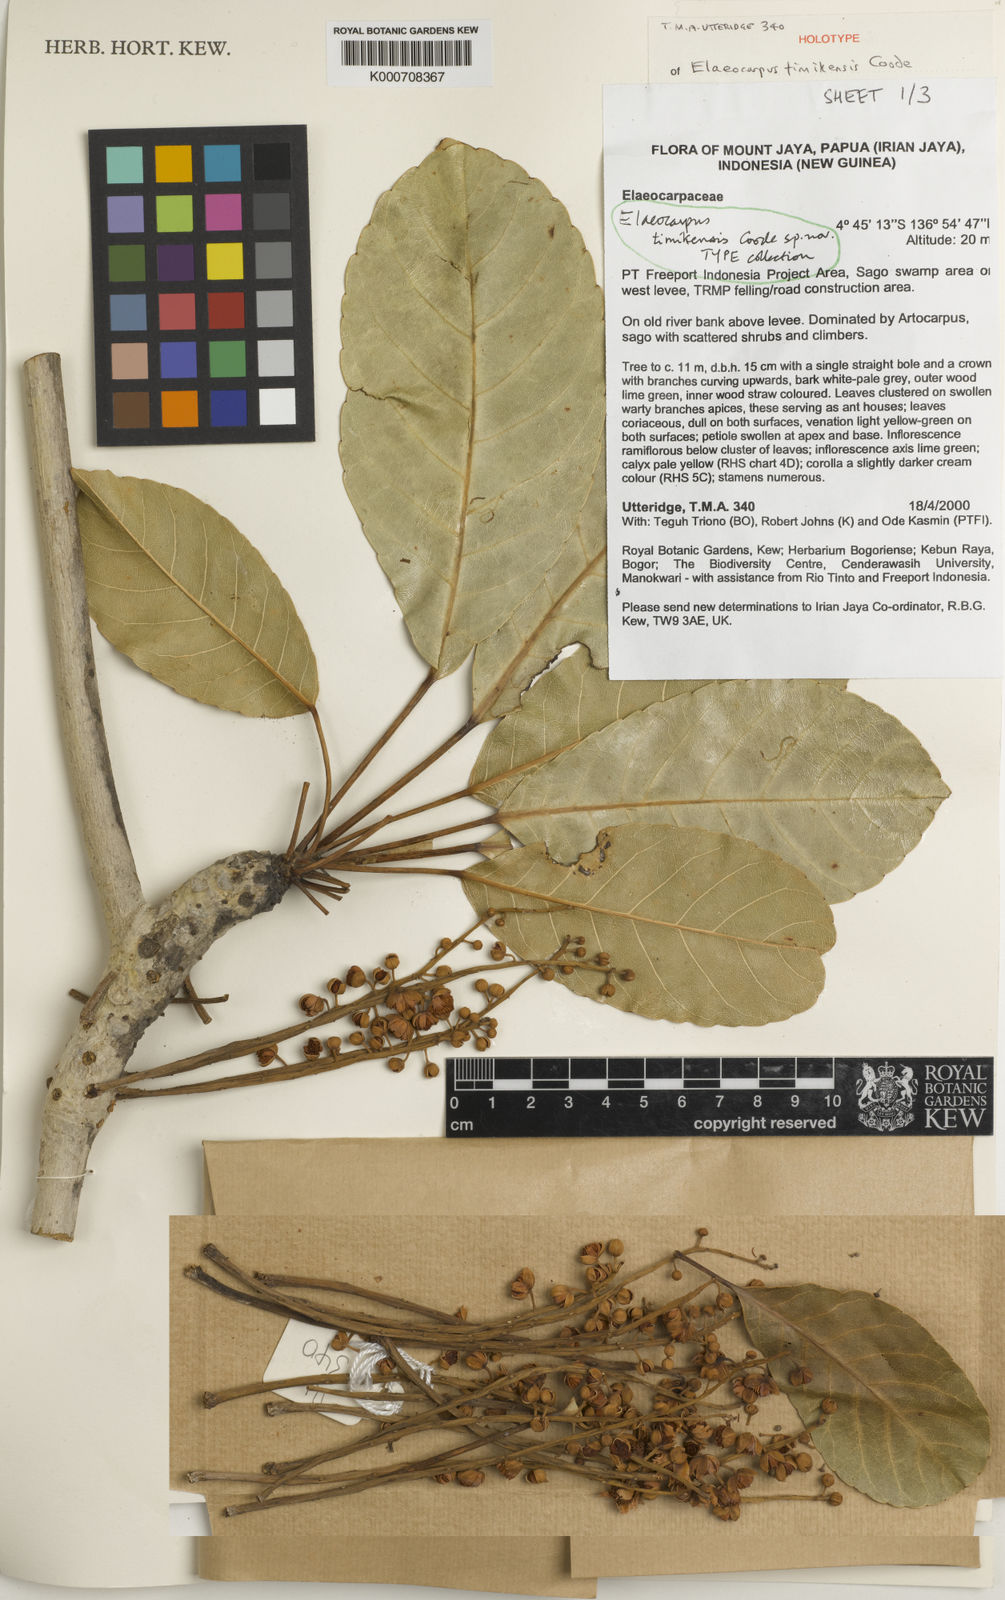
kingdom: Plantae
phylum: Tracheophyta
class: Magnoliopsida
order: Oxalidales
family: Elaeocarpaceae
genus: Elaeocarpus
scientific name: Elaeocarpus timikensis
